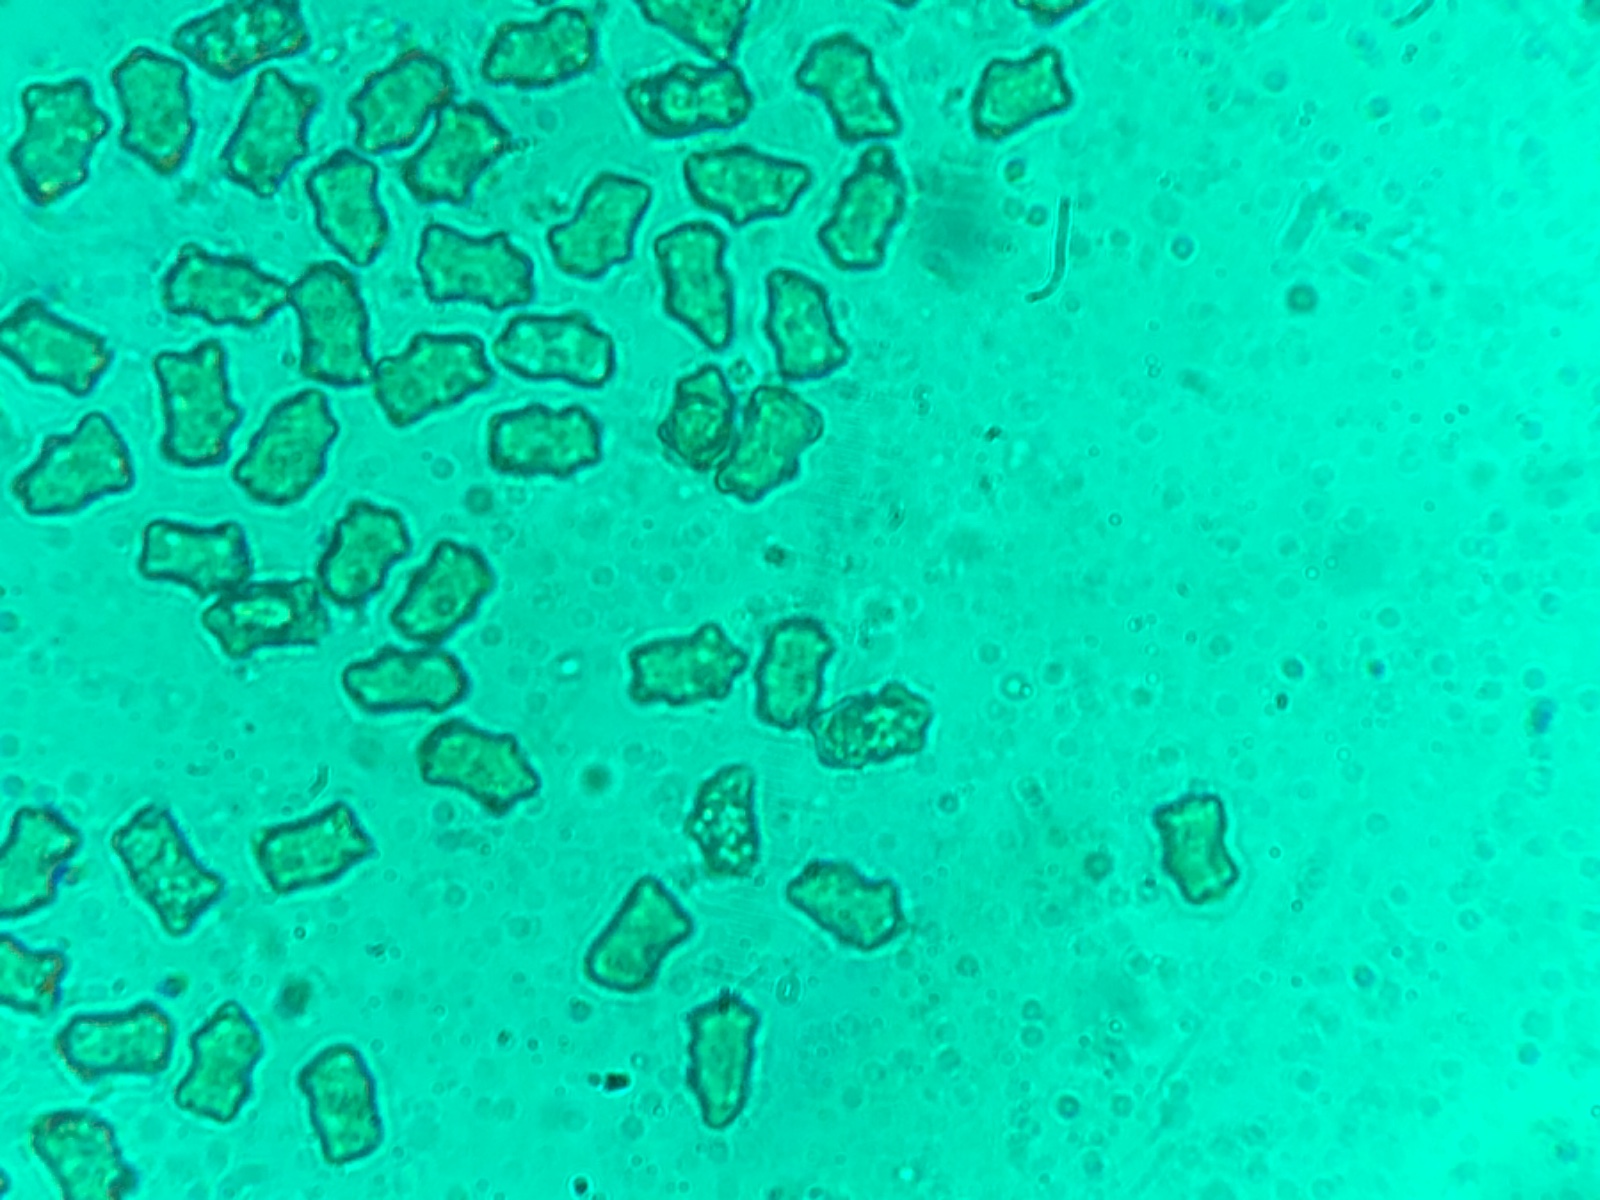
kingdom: Fungi
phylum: Basidiomycota
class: Agaricomycetes
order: Agaricales
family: Inocybaceae
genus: Inocybe
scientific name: Inocybe giacomi
